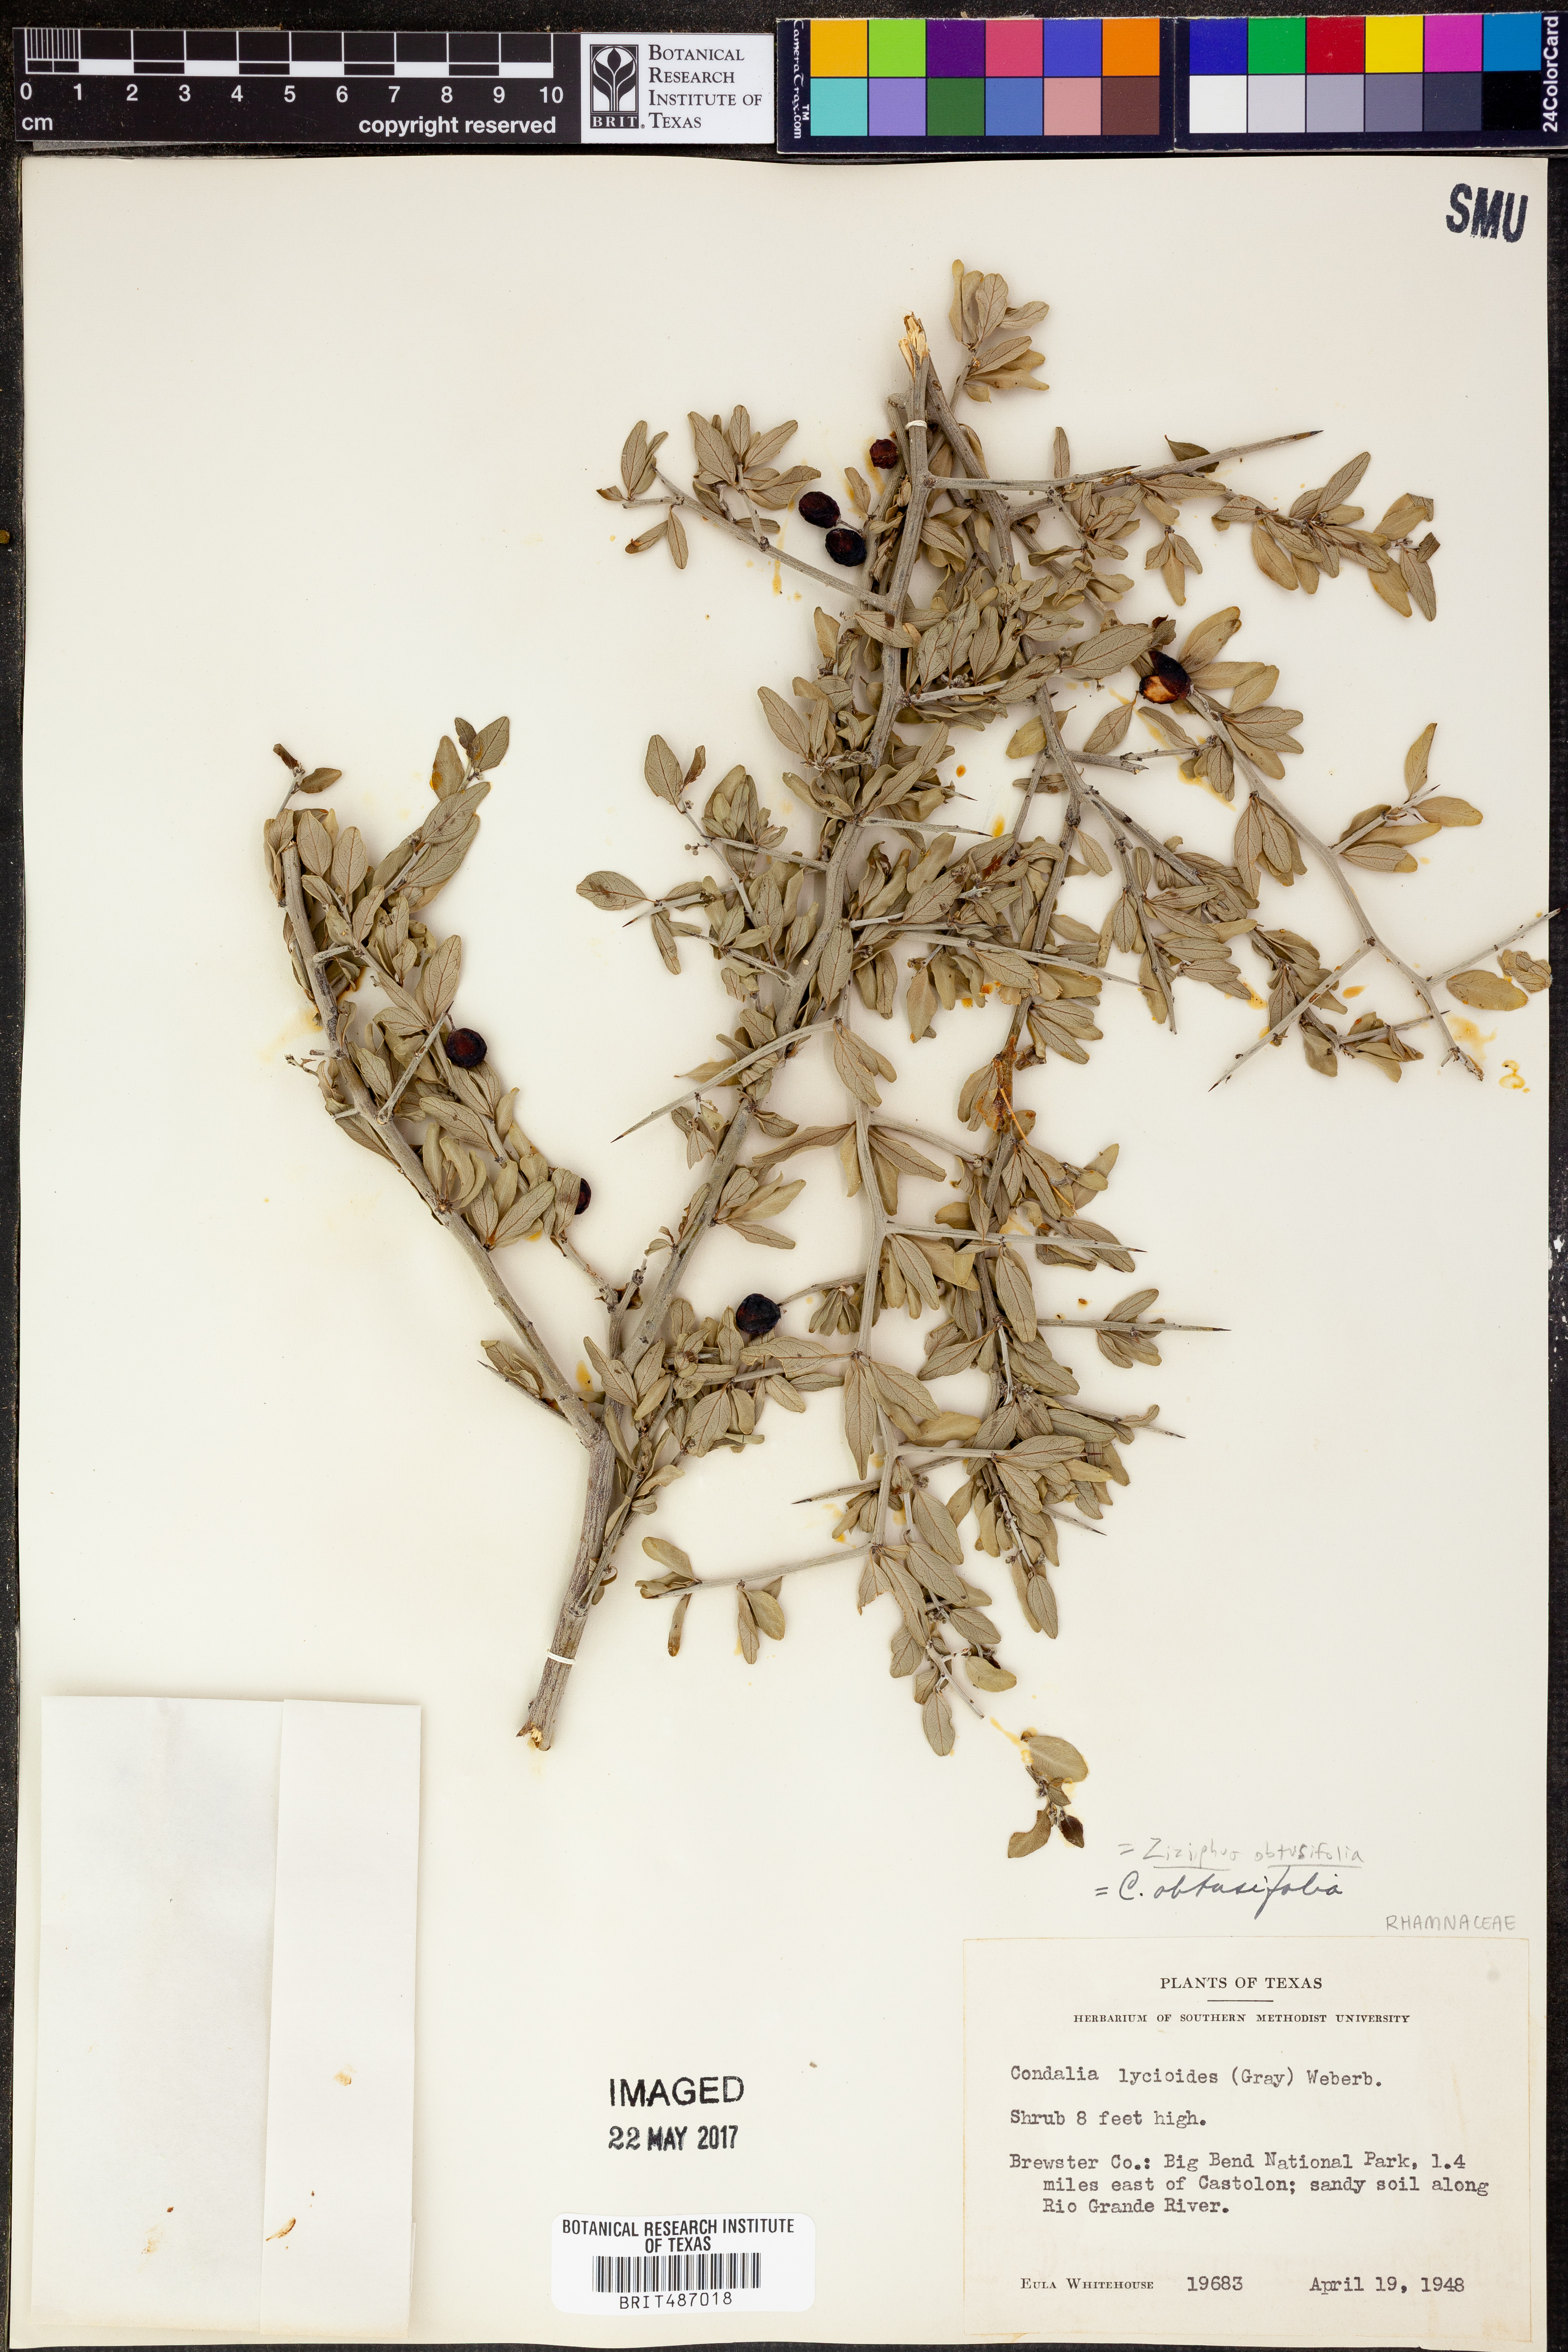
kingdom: Plantae
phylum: Tracheophyta
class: Magnoliopsida
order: Rosales
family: Rhamnaceae
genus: Sarcomphalus
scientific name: Sarcomphalus obtusifolius
